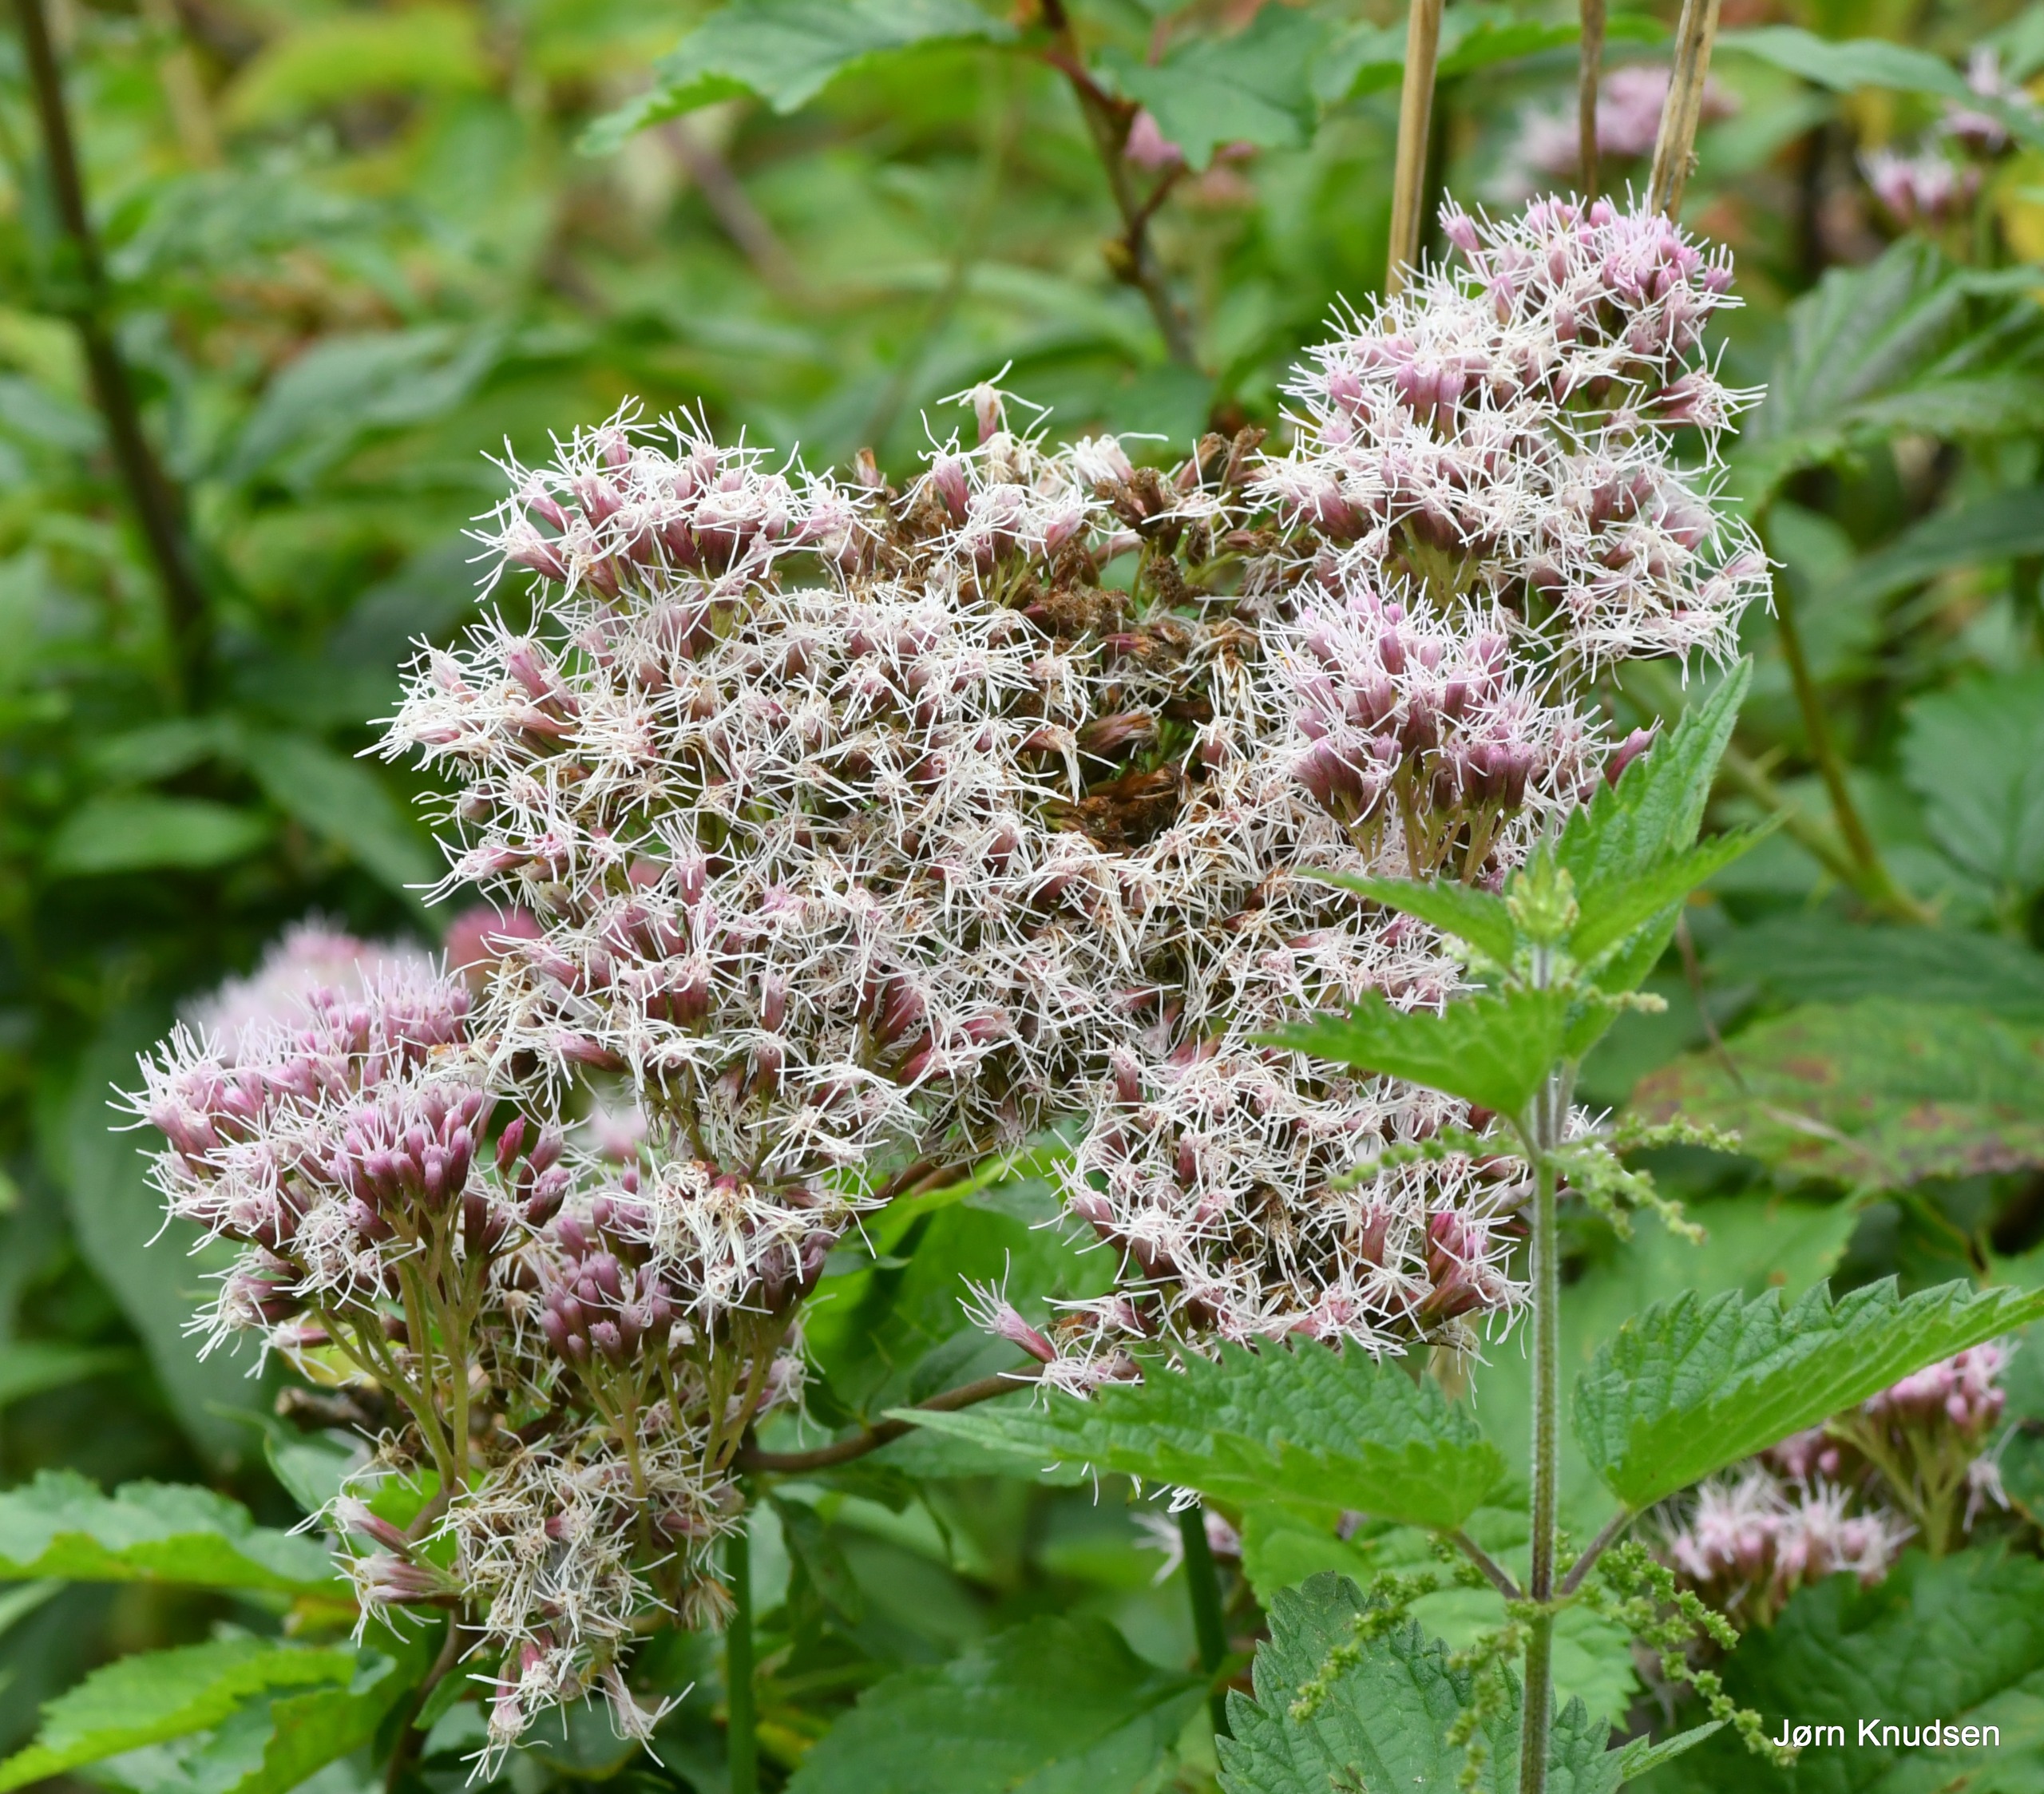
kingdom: Plantae
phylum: Tracheophyta
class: Magnoliopsida
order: Asterales
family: Asteraceae
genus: Eupatorium
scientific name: Eupatorium cannabinum
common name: Hjortetrøst
